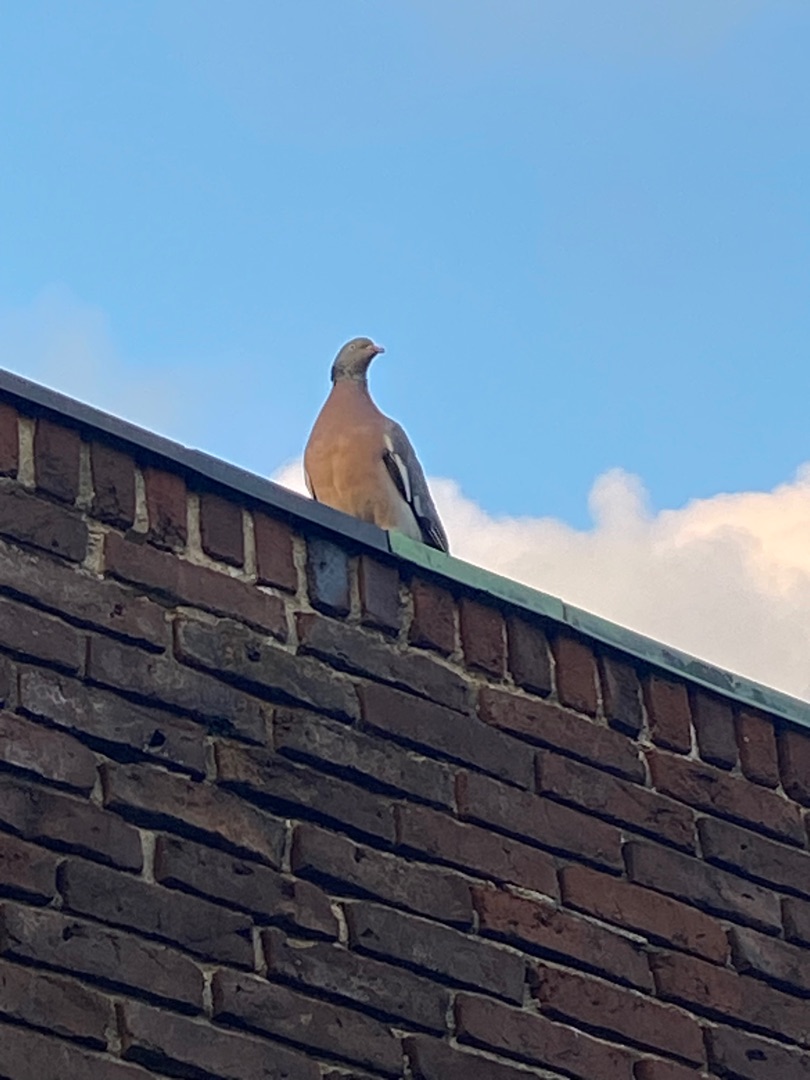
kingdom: Animalia
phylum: Chordata
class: Aves
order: Columbiformes
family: Columbidae
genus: Columba
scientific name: Columba palumbus
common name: Ringdue
